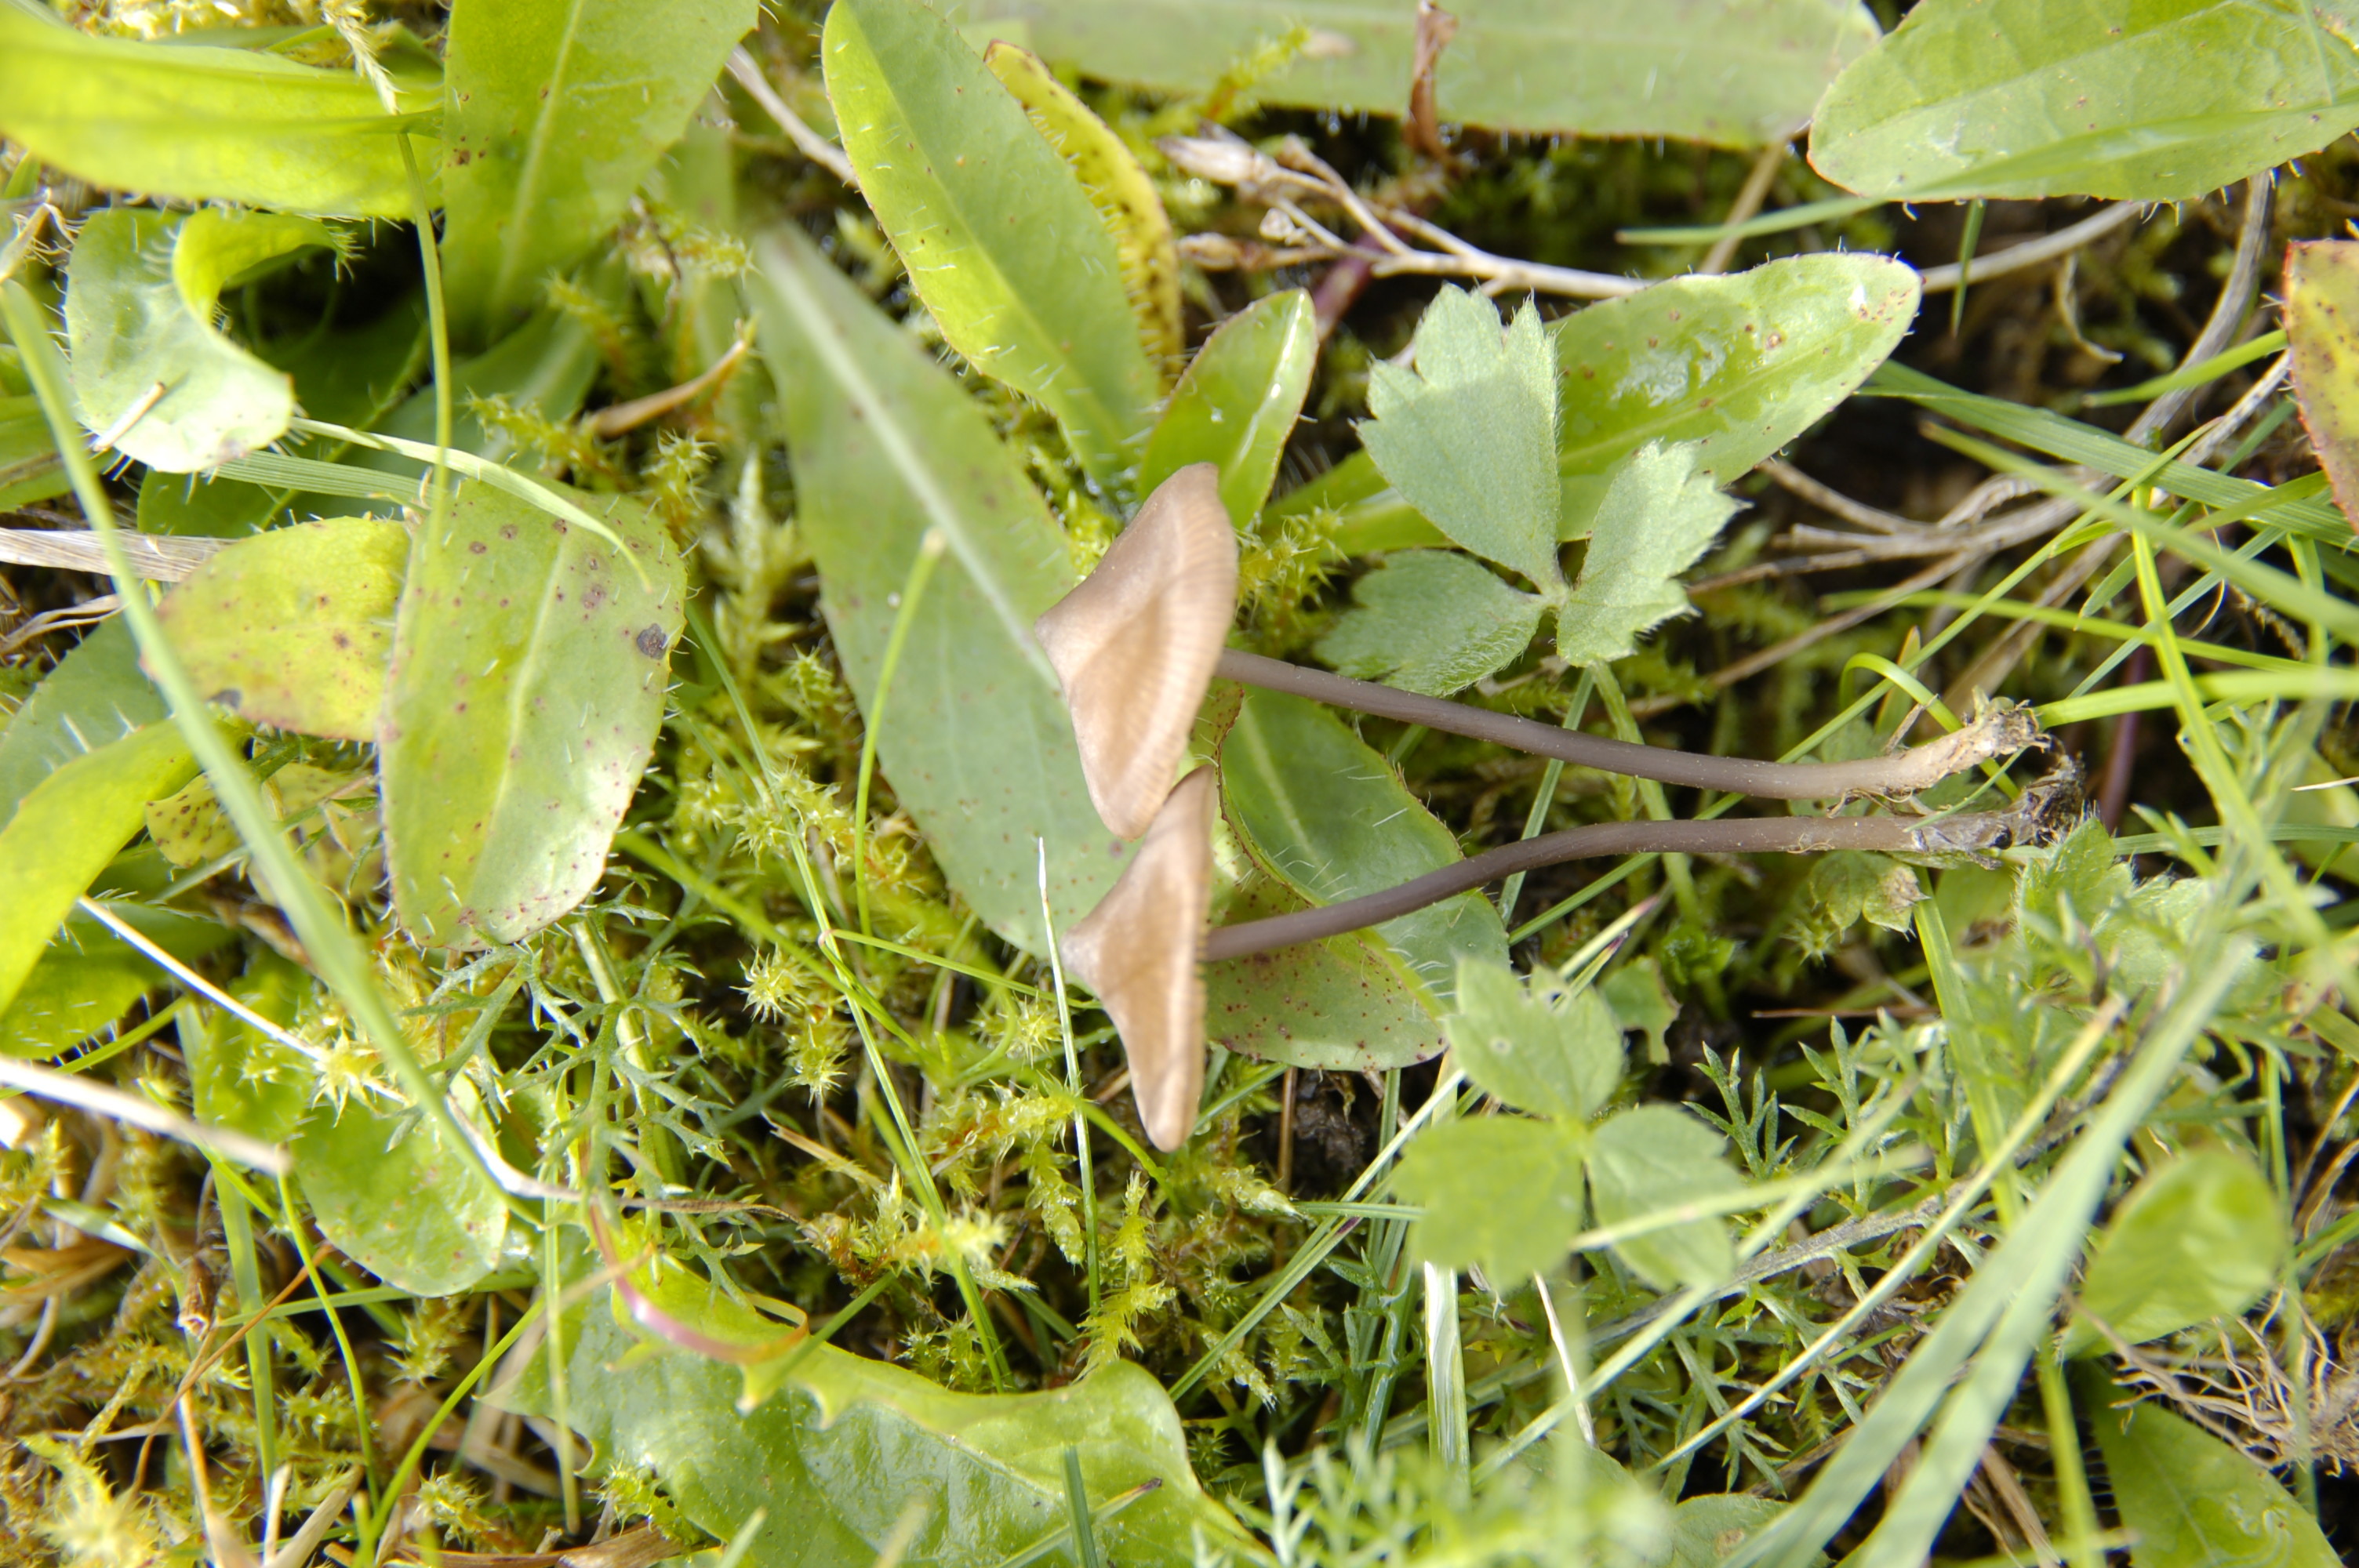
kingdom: Fungi
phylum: Basidiomycota
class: Agaricomycetes
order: Agaricales
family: Entolomataceae
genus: Entoloma
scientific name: Entoloma
